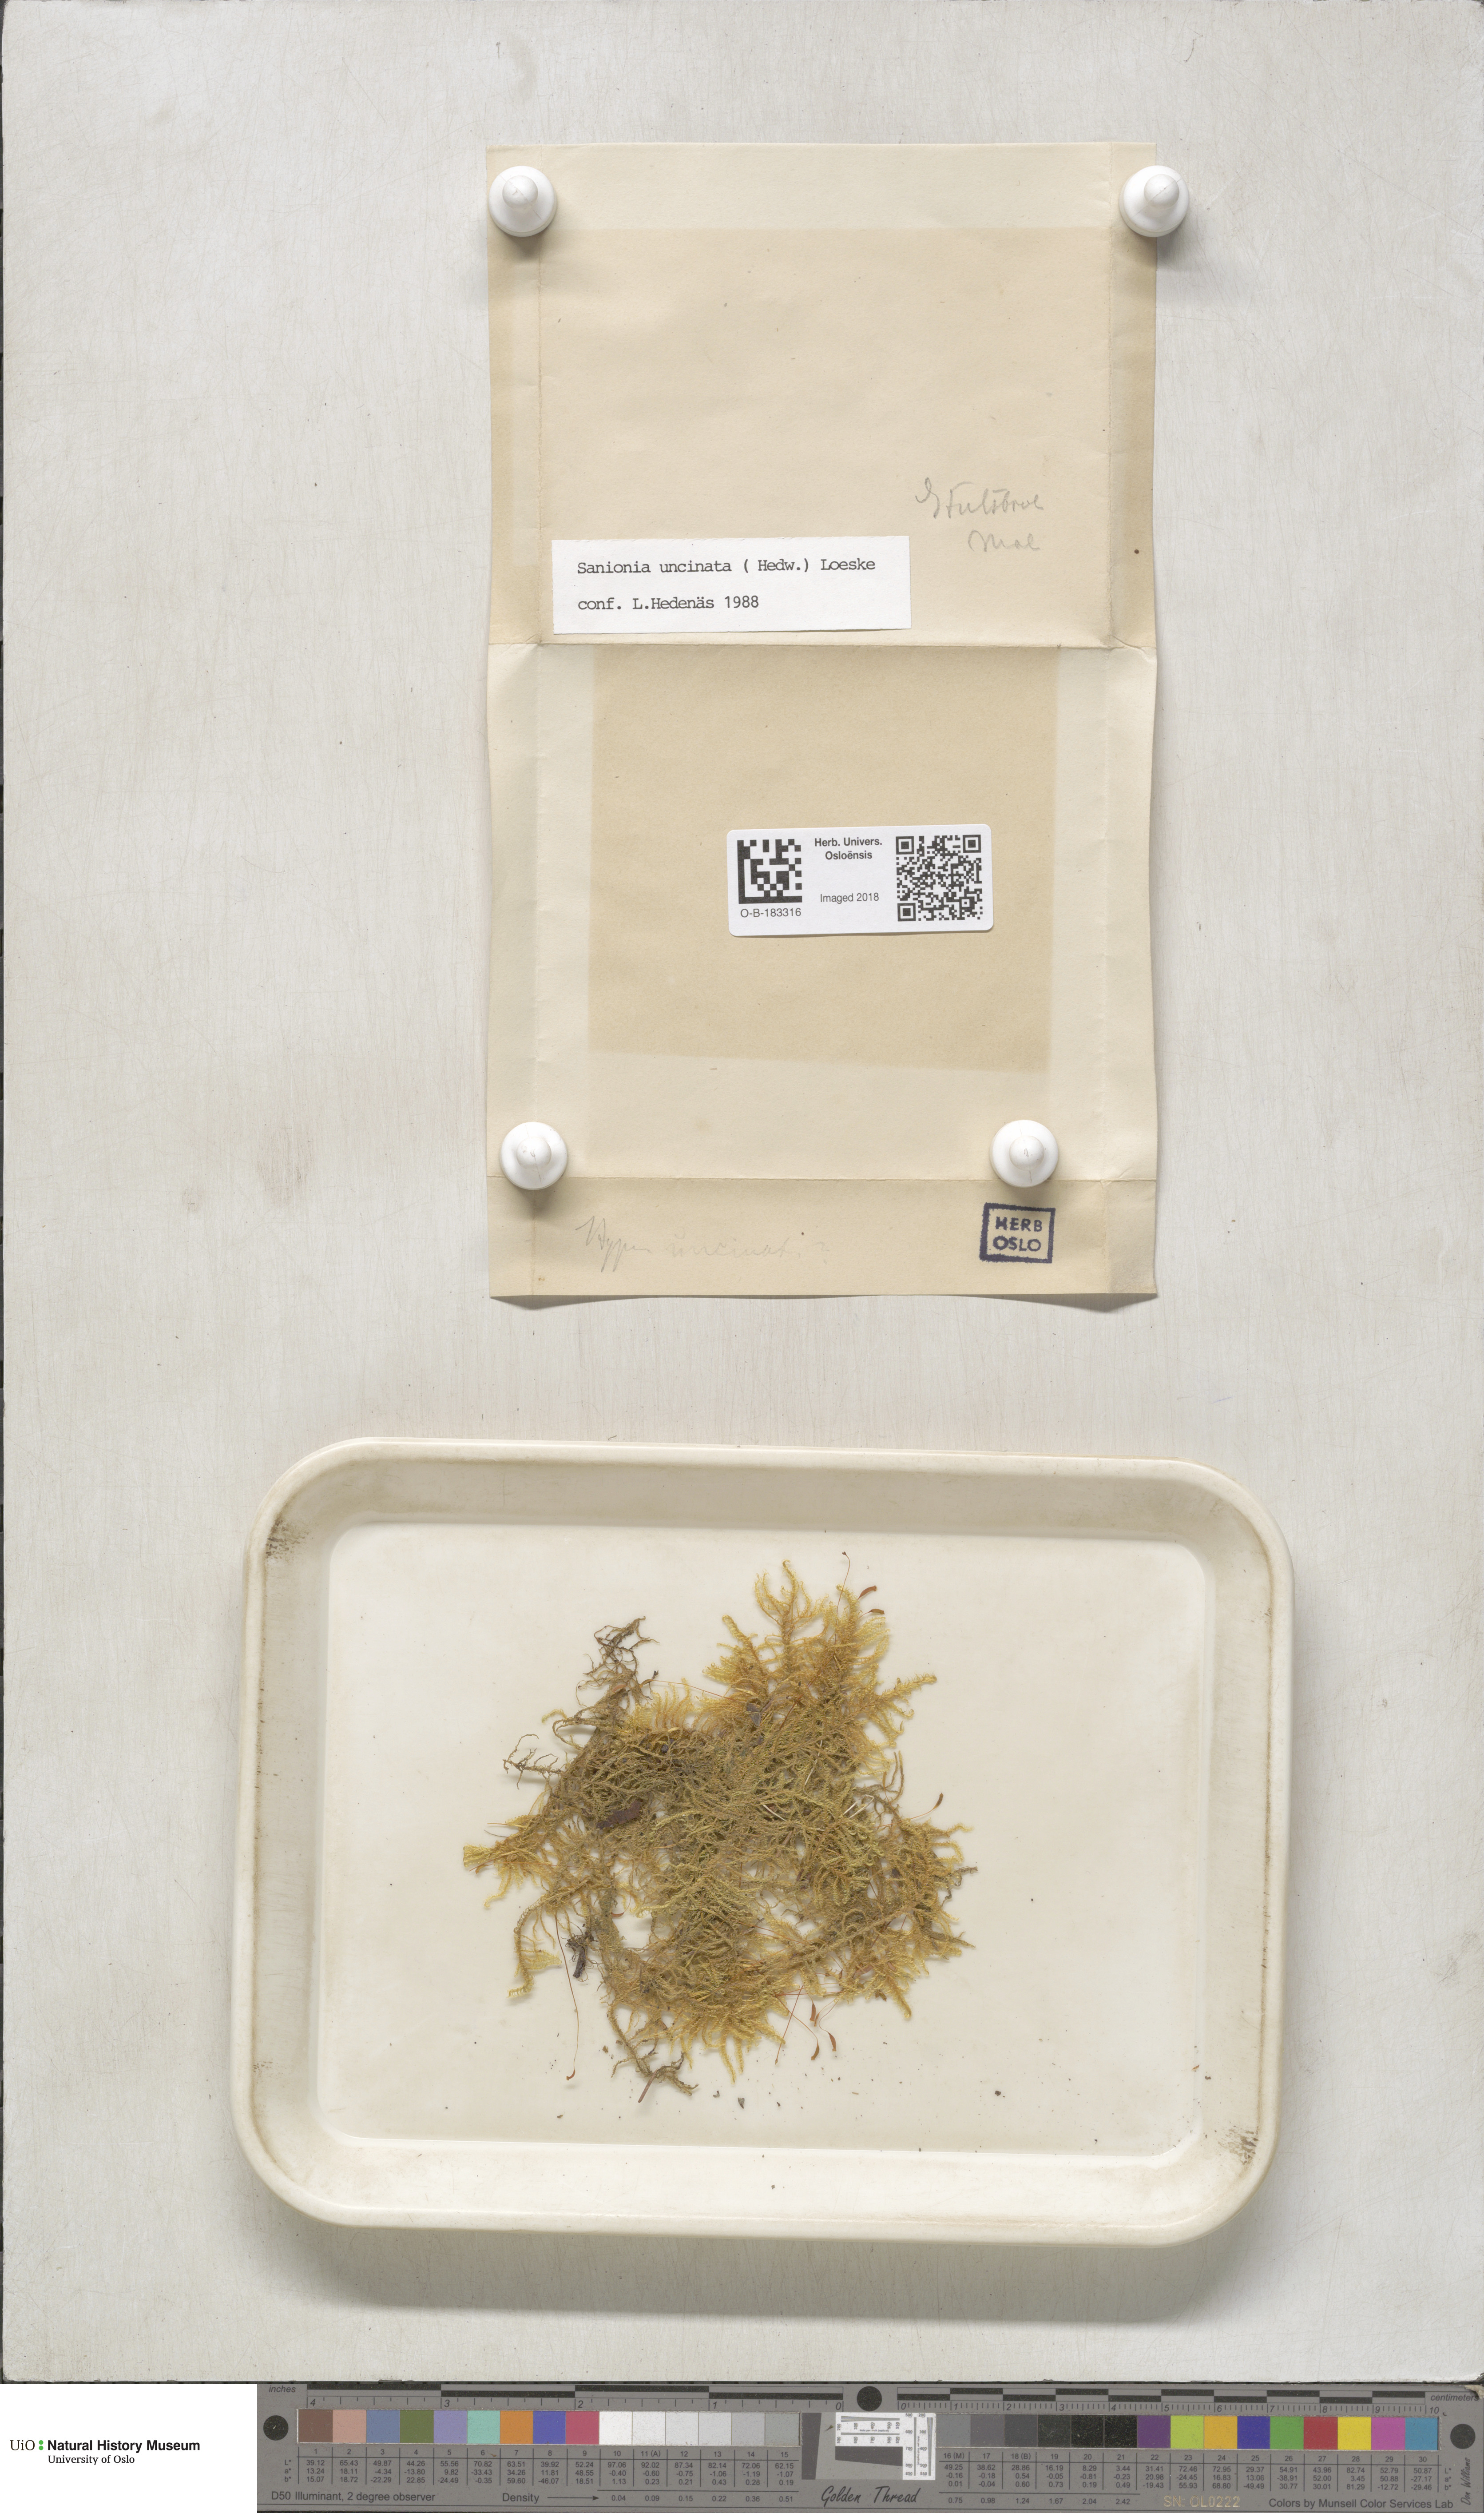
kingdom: Plantae
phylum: Bryophyta
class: Bryopsida
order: Hypnales
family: Scorpidiaceae
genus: Sanionia
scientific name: Sanionia uncinata
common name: Sickle moss
